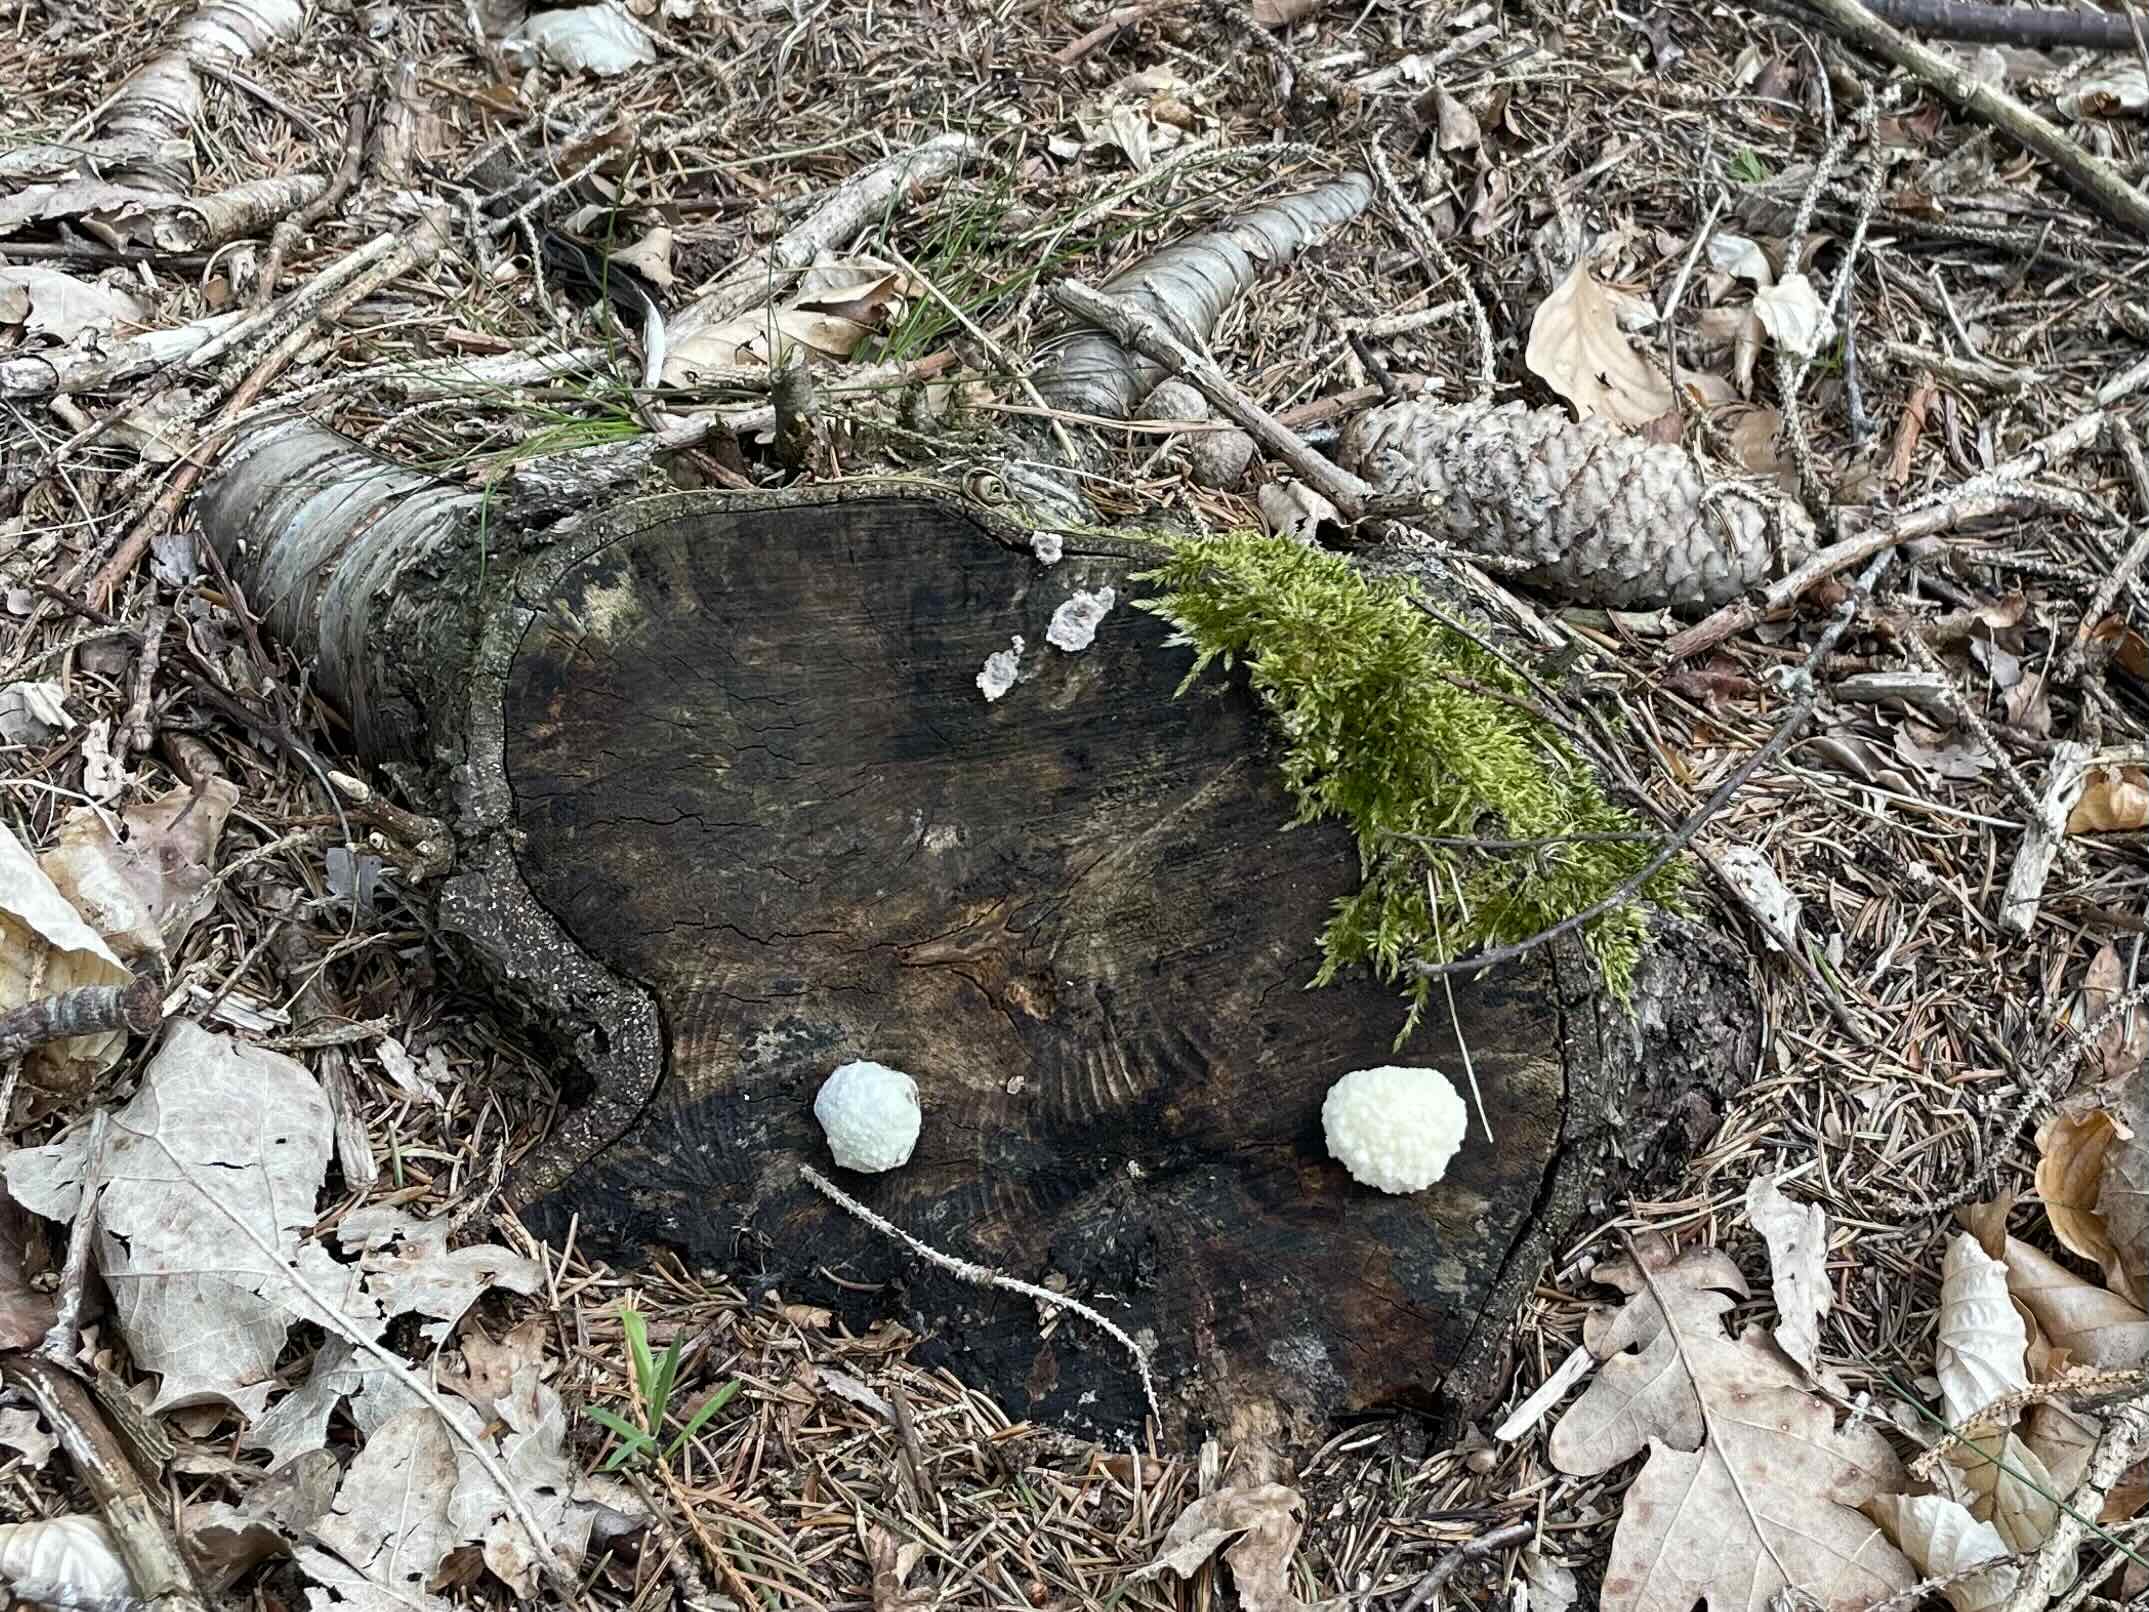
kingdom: Protozoa
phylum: Mycetozoa
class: Myxomycetes
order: Cribrariales
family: Tubiferaceae
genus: Reticularia
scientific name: Reticularia lycoperdon
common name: skinnende støvpude
